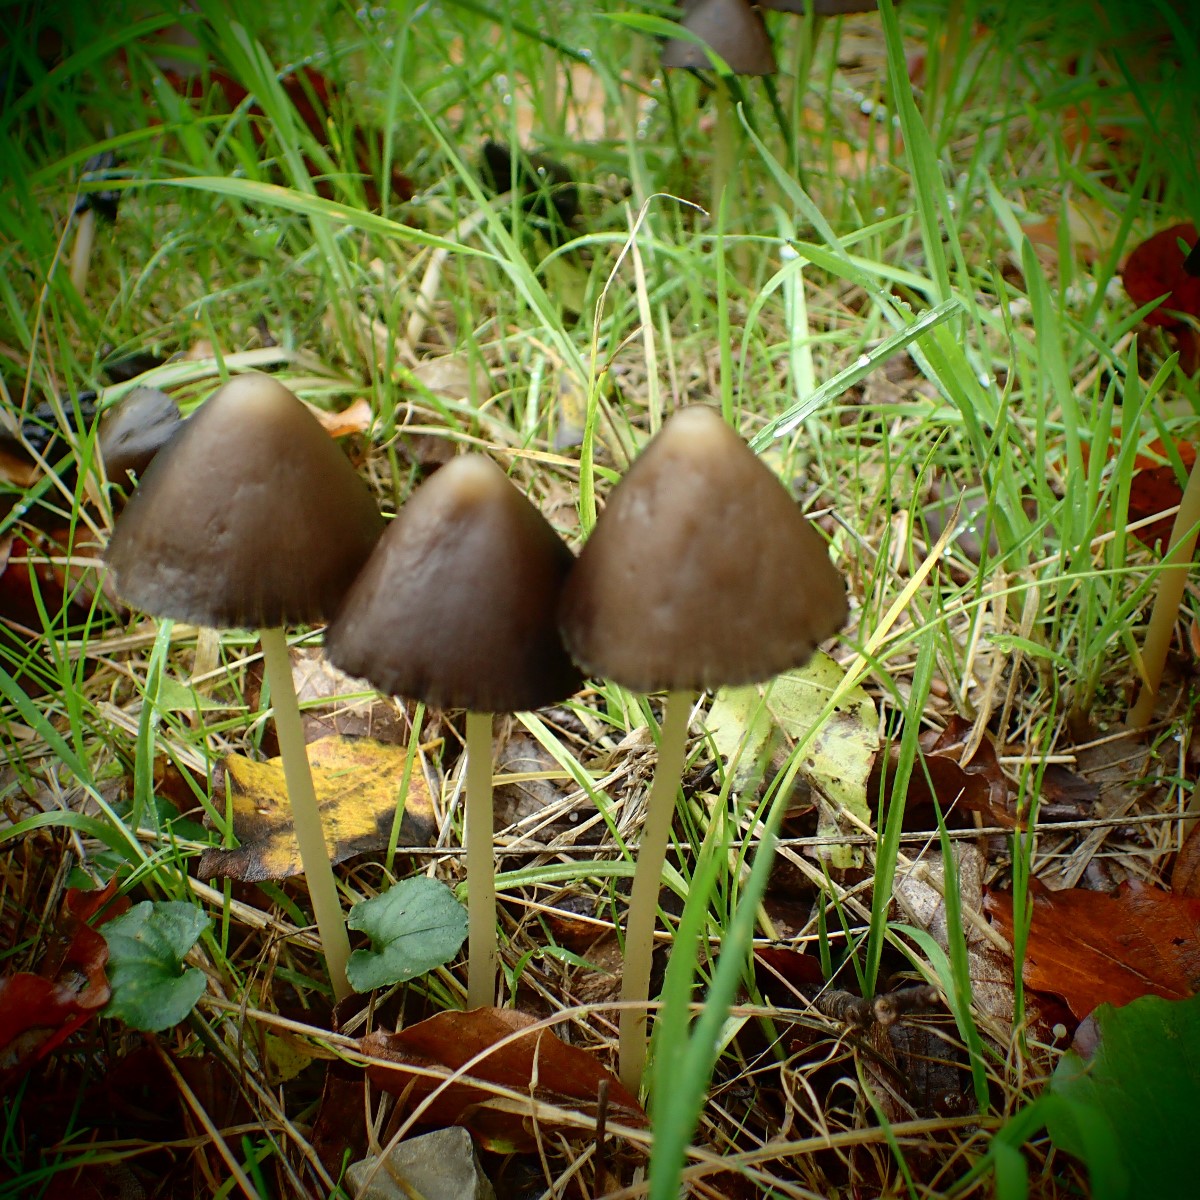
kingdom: Fungi
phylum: Basidiomycota
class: Agaricomycetes
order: Agaricales
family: Psathyrellaceae
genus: Parasola
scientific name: Parasola conopilea
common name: kegle-hjulhat
